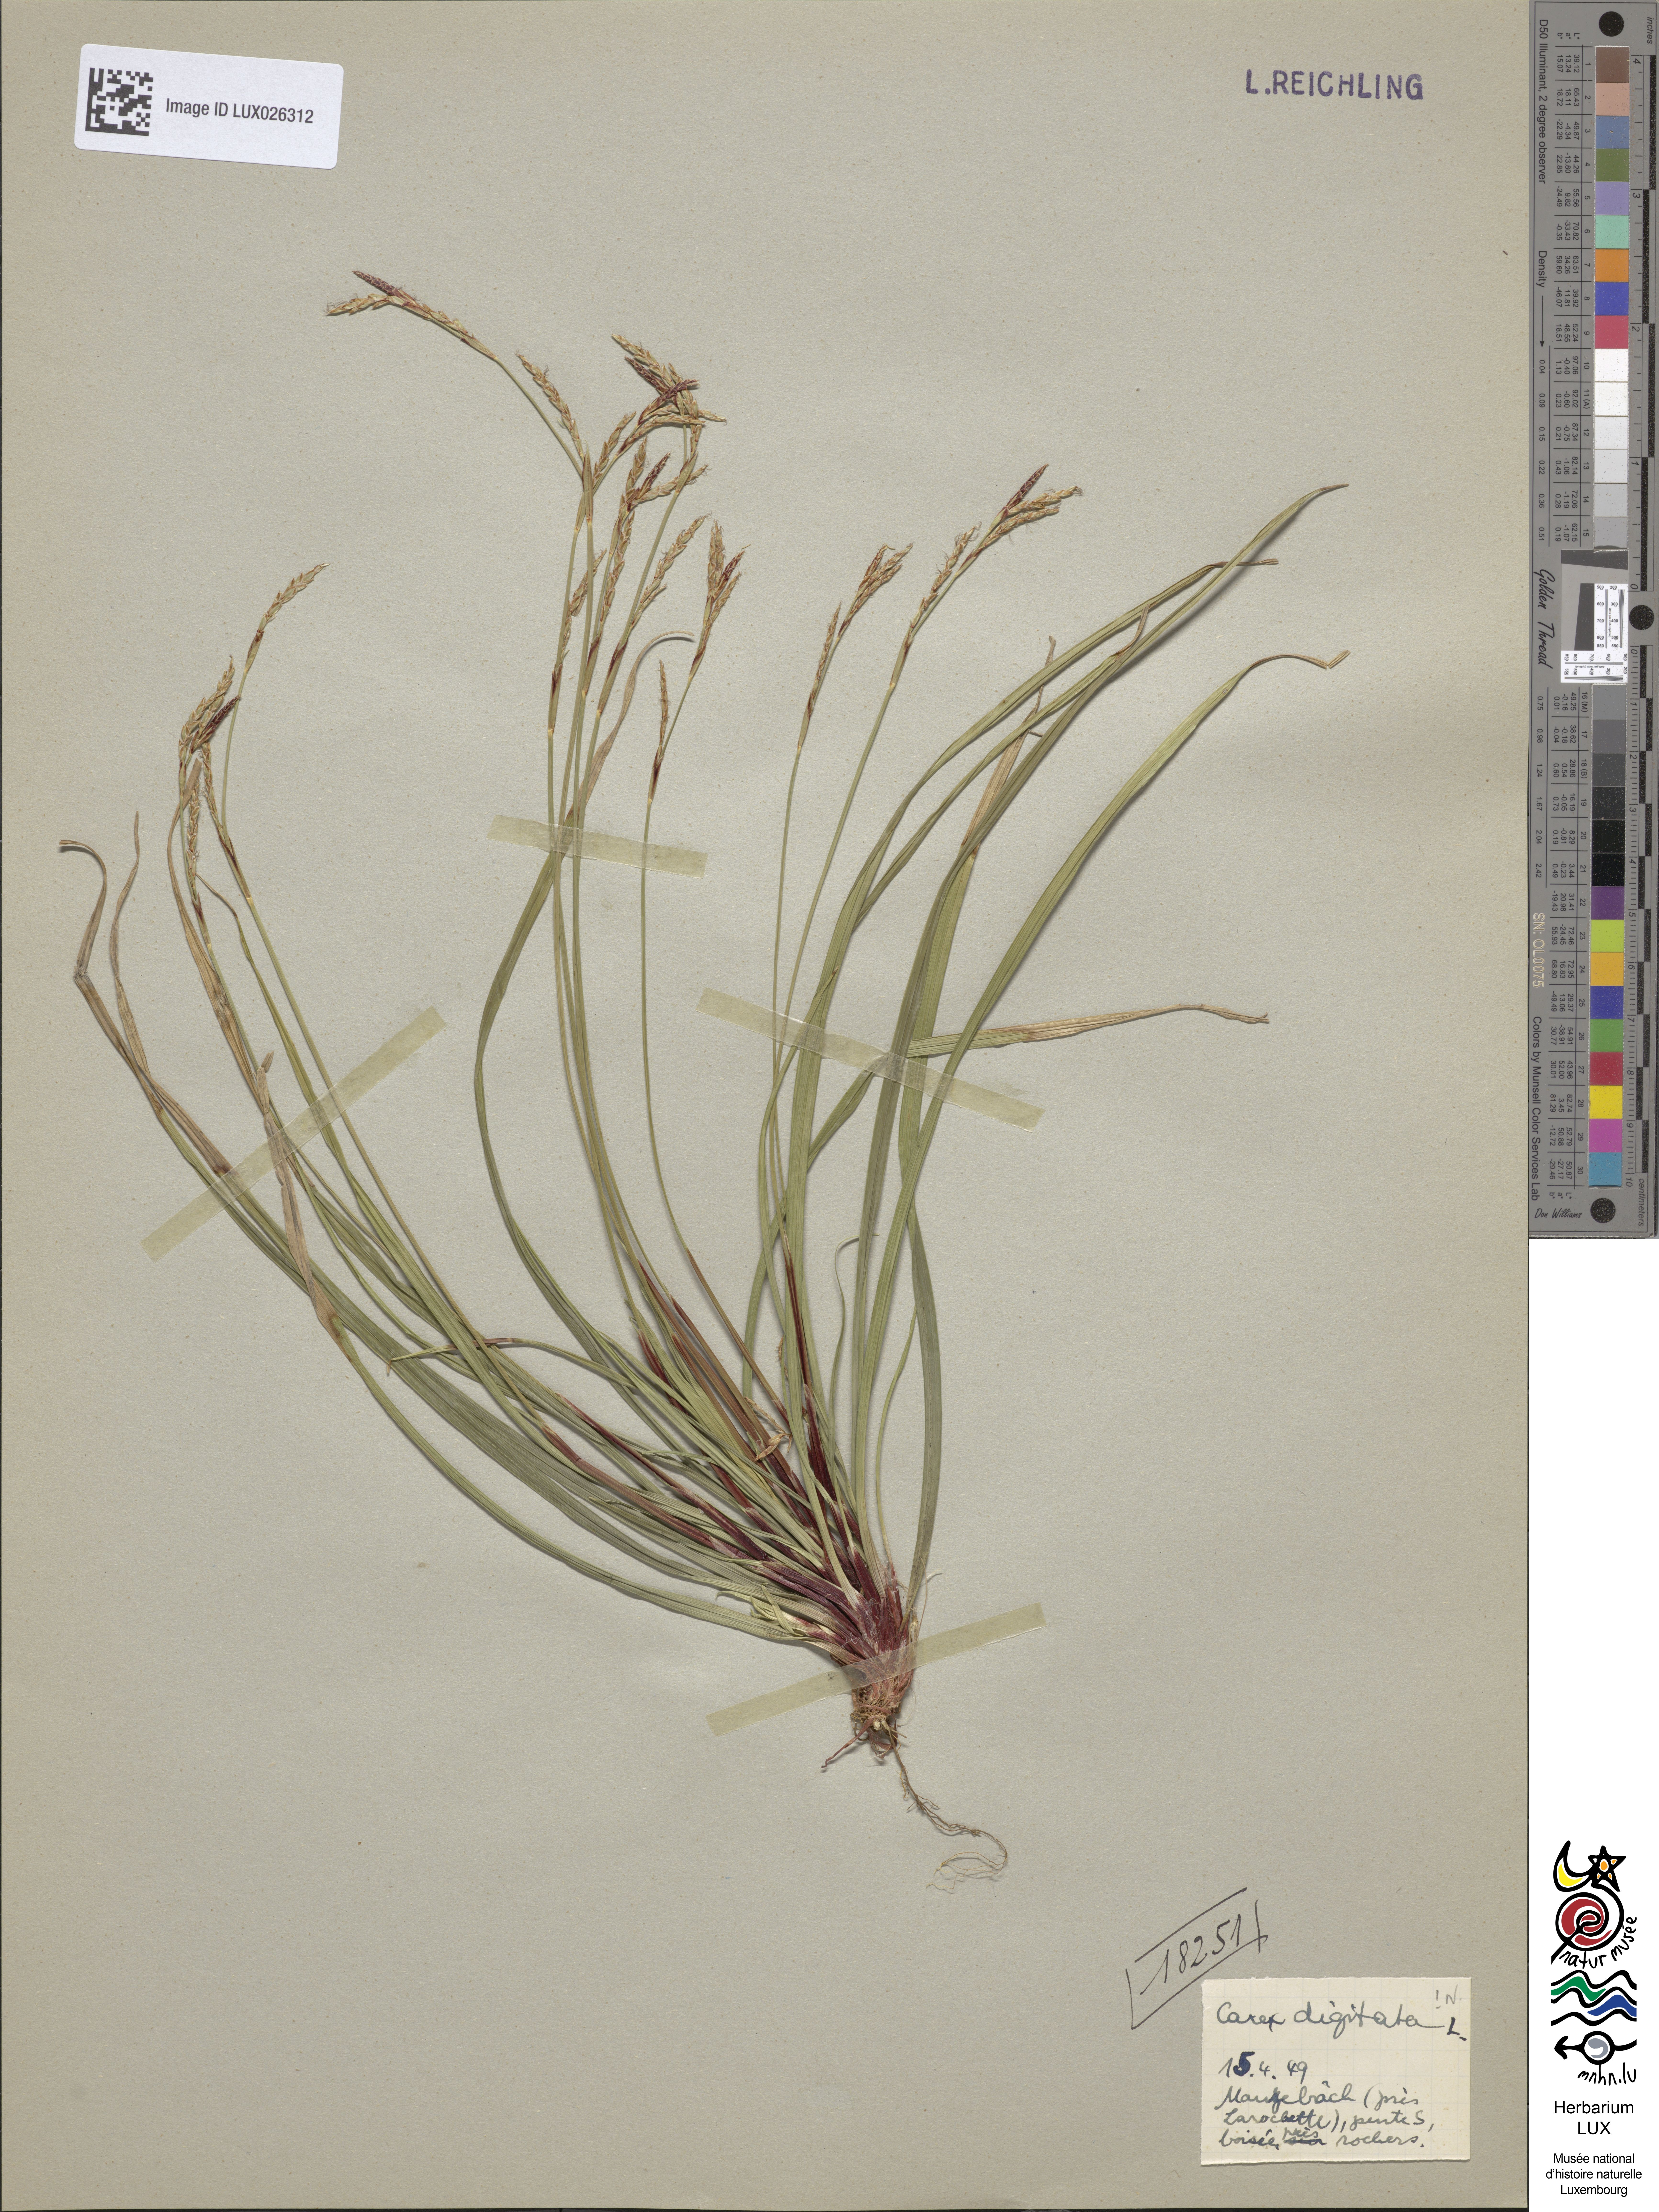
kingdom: Plantae
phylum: Tracheophyta
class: Liliopsida
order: Poales
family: Cyperaceae
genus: Carex
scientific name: Carex digitata
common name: Fingered sedge
